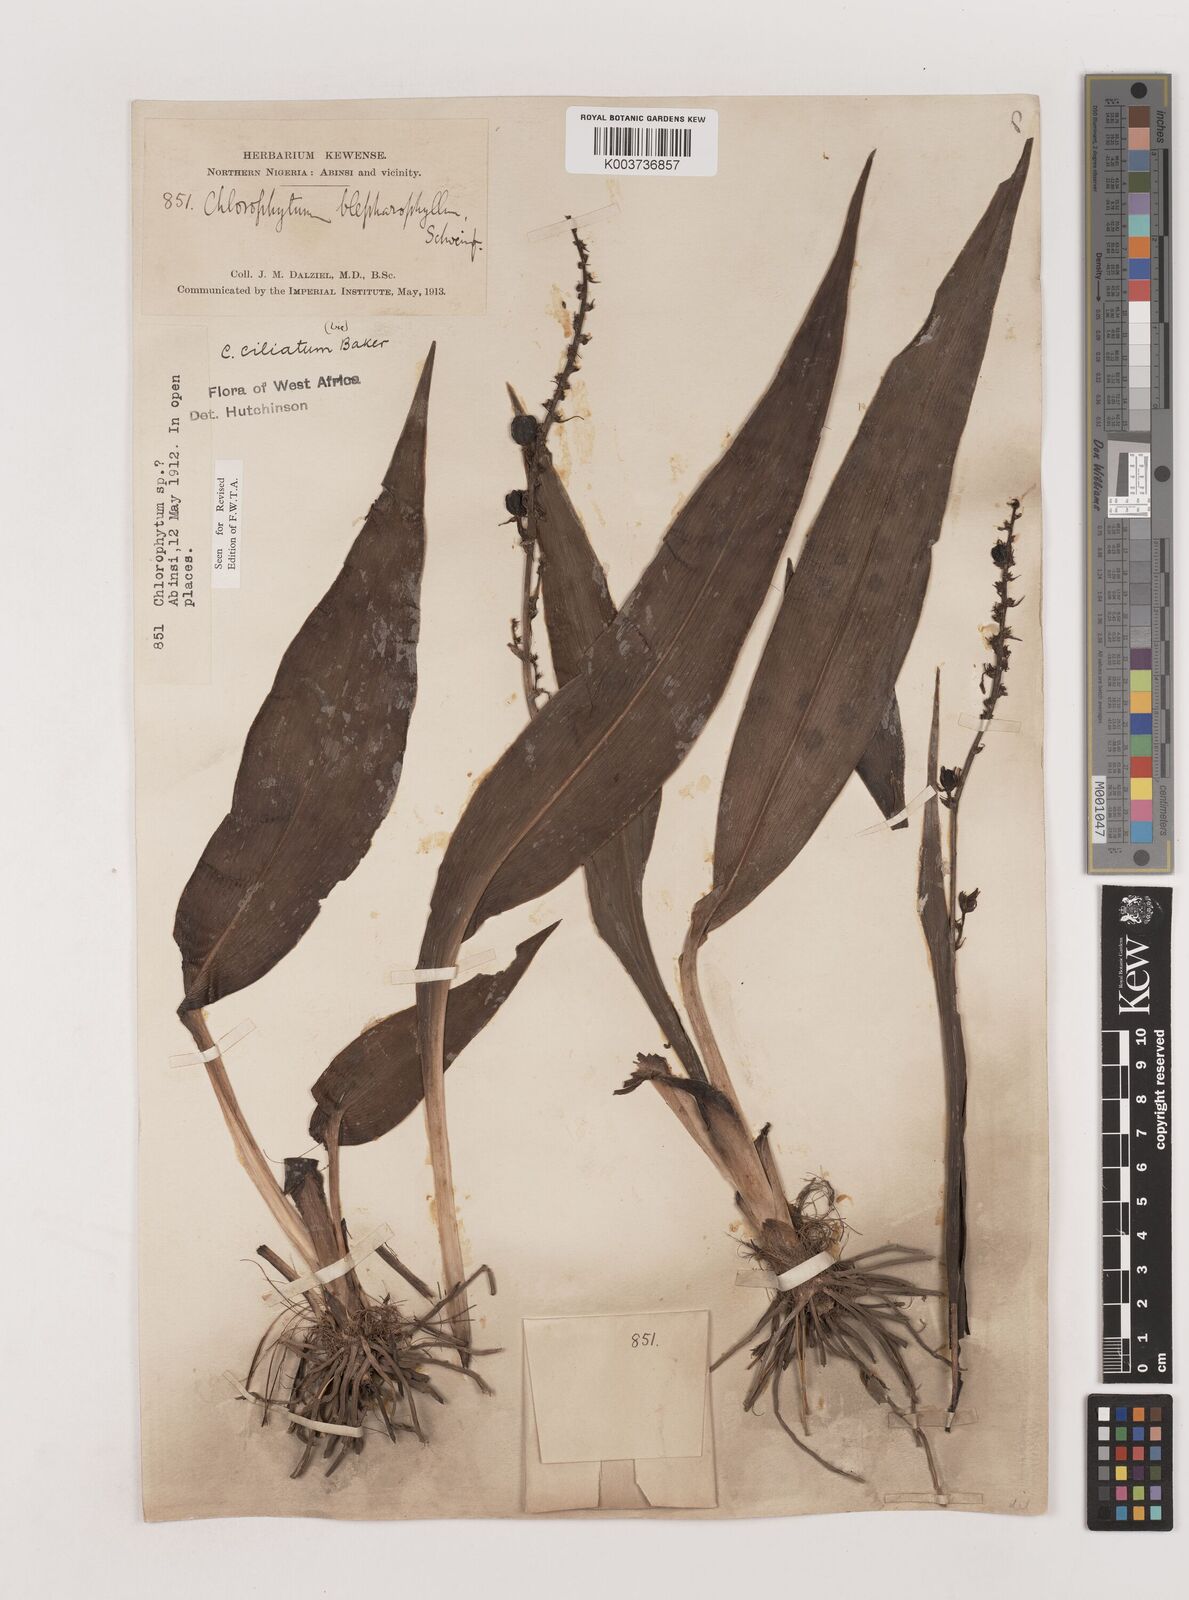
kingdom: Plantae
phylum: Tracheophyta
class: Liliopsida
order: Asparagales
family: Asparagaceae
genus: Chlorophytum
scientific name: Chlorophytum blepharophyllum
